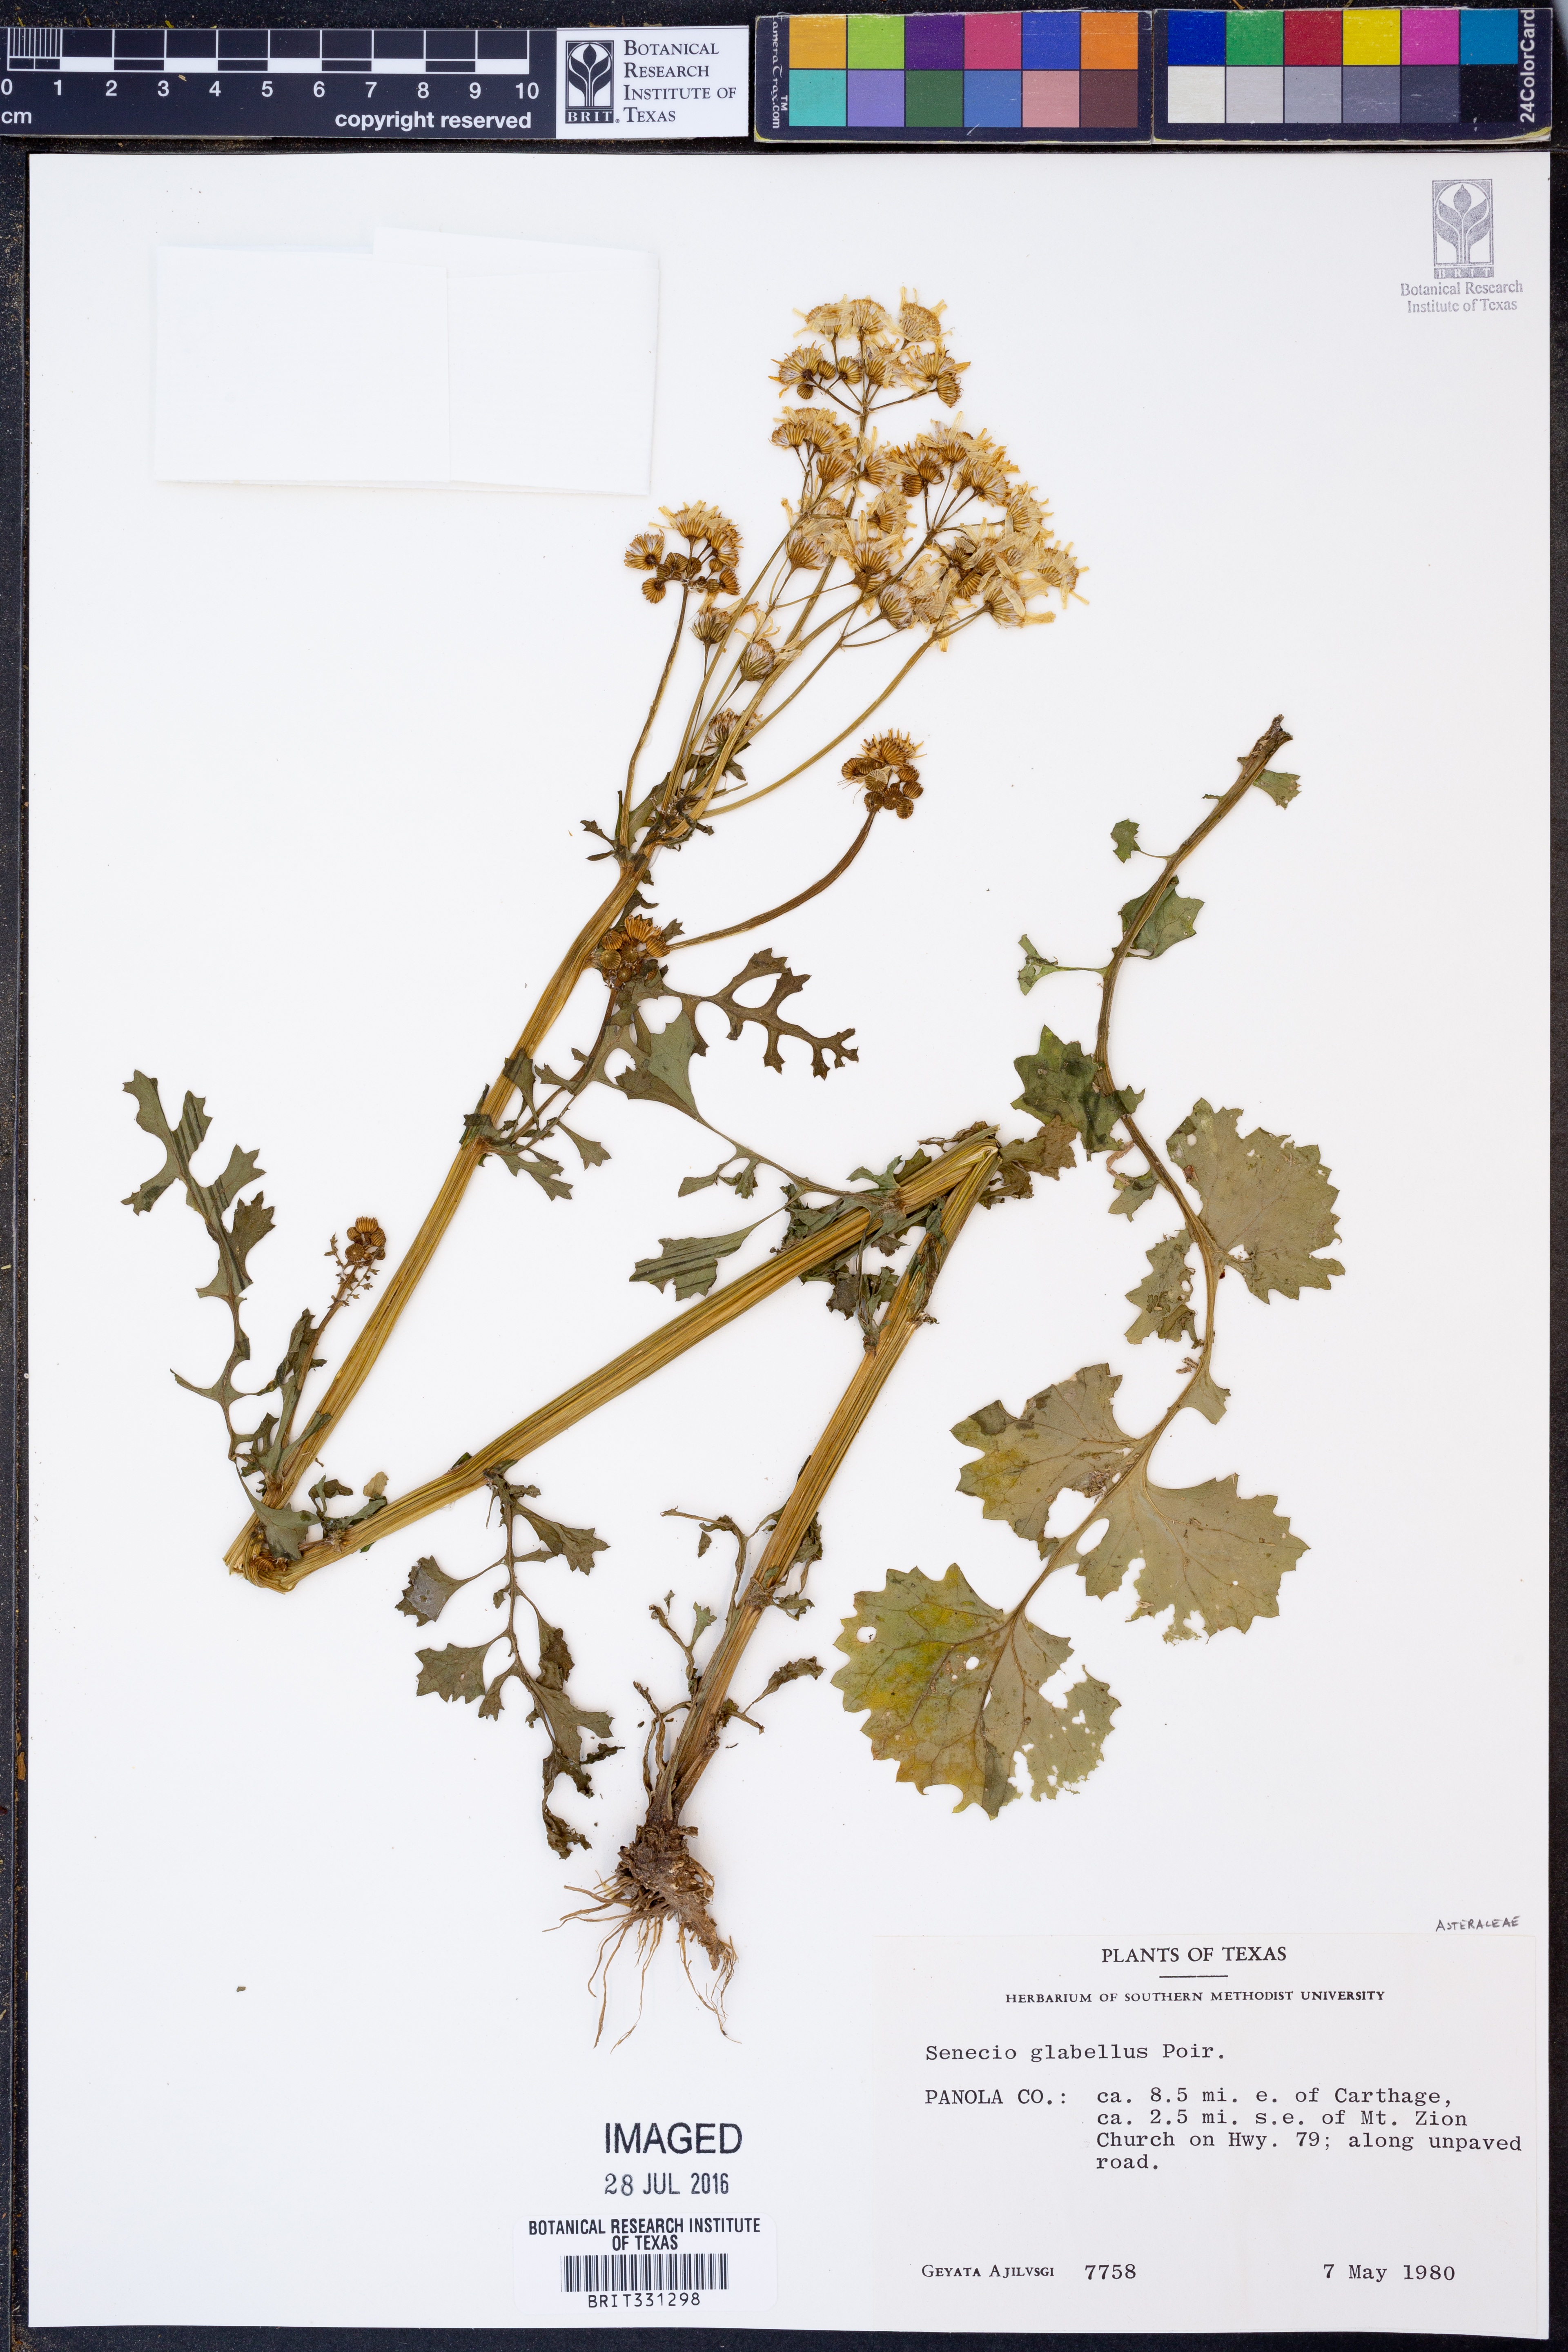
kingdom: Plantae
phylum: Tracheophyta
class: Magnoliopsida
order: Asterales
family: Asteraceae
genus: Tephroseris
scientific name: Tephroseris praticola
